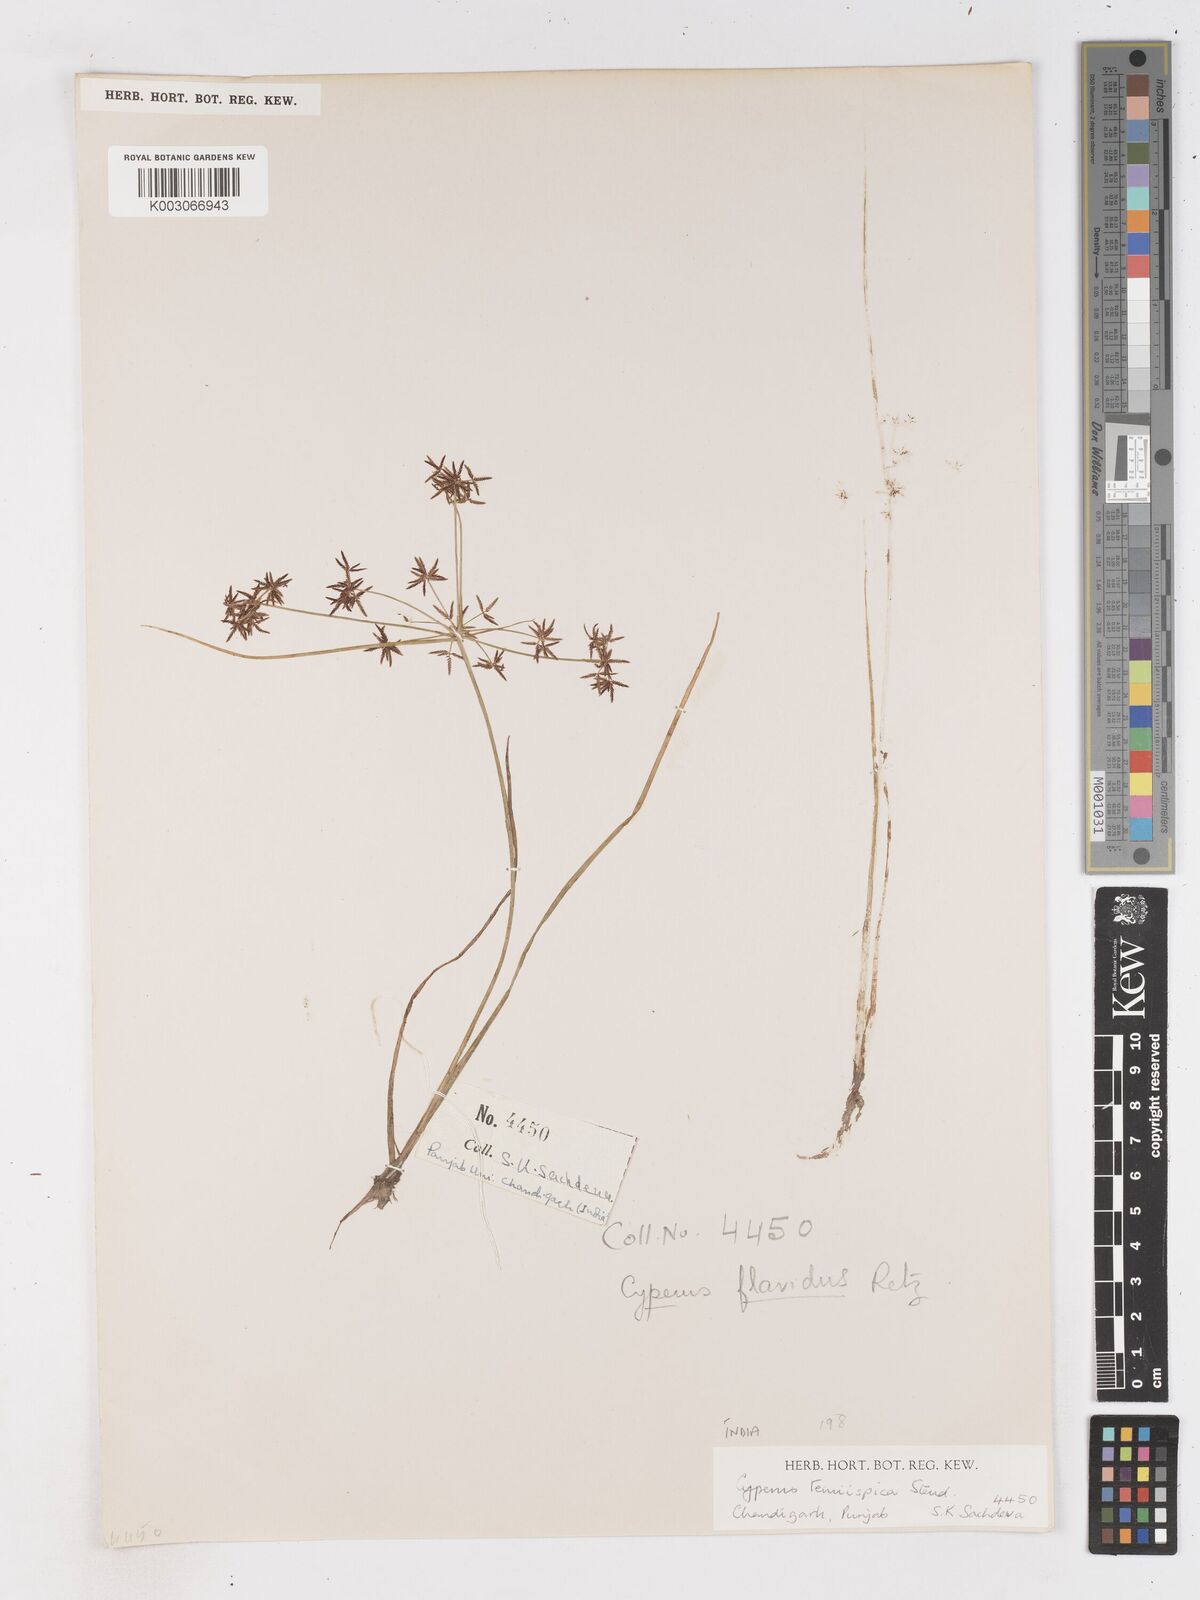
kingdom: Plantae
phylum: Tracheophyta
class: Liliopsida
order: Poales
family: Cyperaceae
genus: Cyperus
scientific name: Cyperus tenuispica
